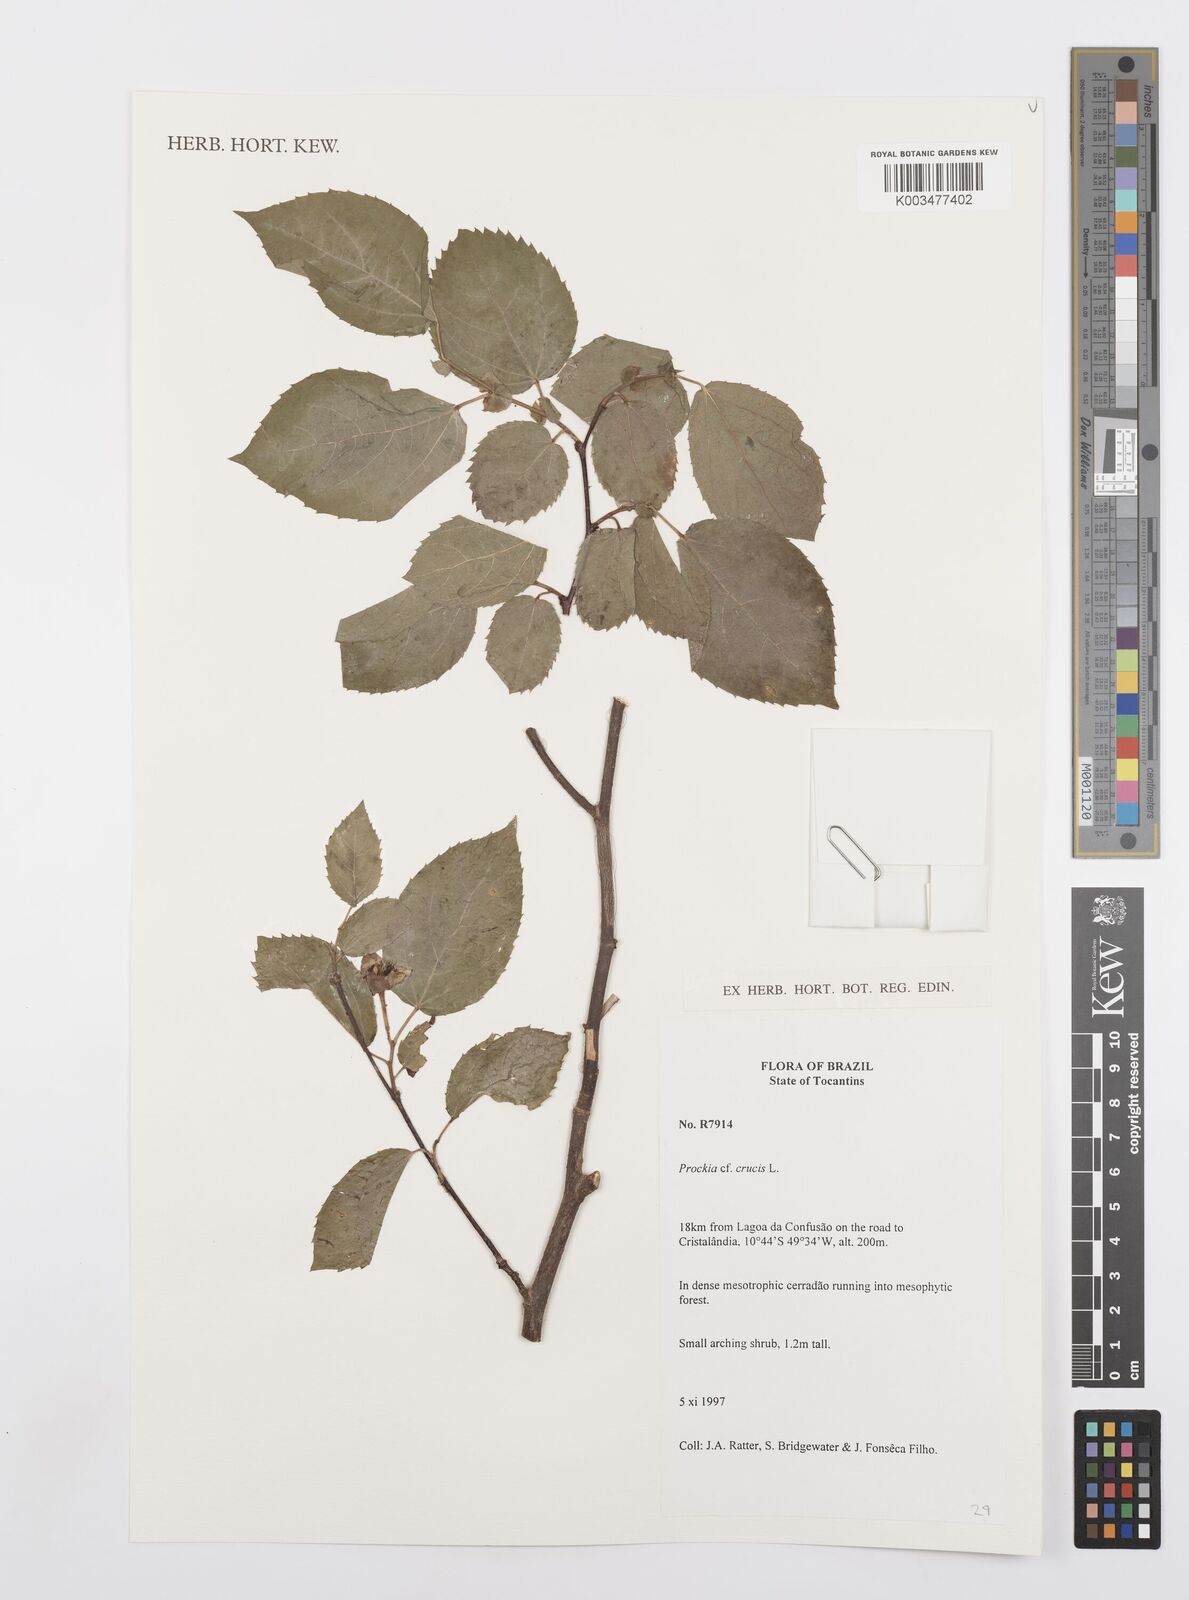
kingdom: Plantae
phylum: Tracheophyta
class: Magnoliopsida
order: Malpighiales
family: Salicaceae
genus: Prockia
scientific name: Prockia crucis
